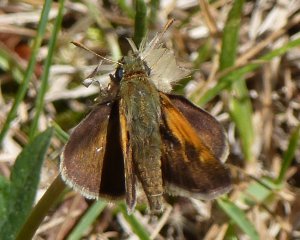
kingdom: Animalia
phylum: Arthropoda
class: Insecta
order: Lepidoptera
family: Hesperiidae
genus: Polites
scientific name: Polites themistocles
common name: Tawny-edged Skipper
